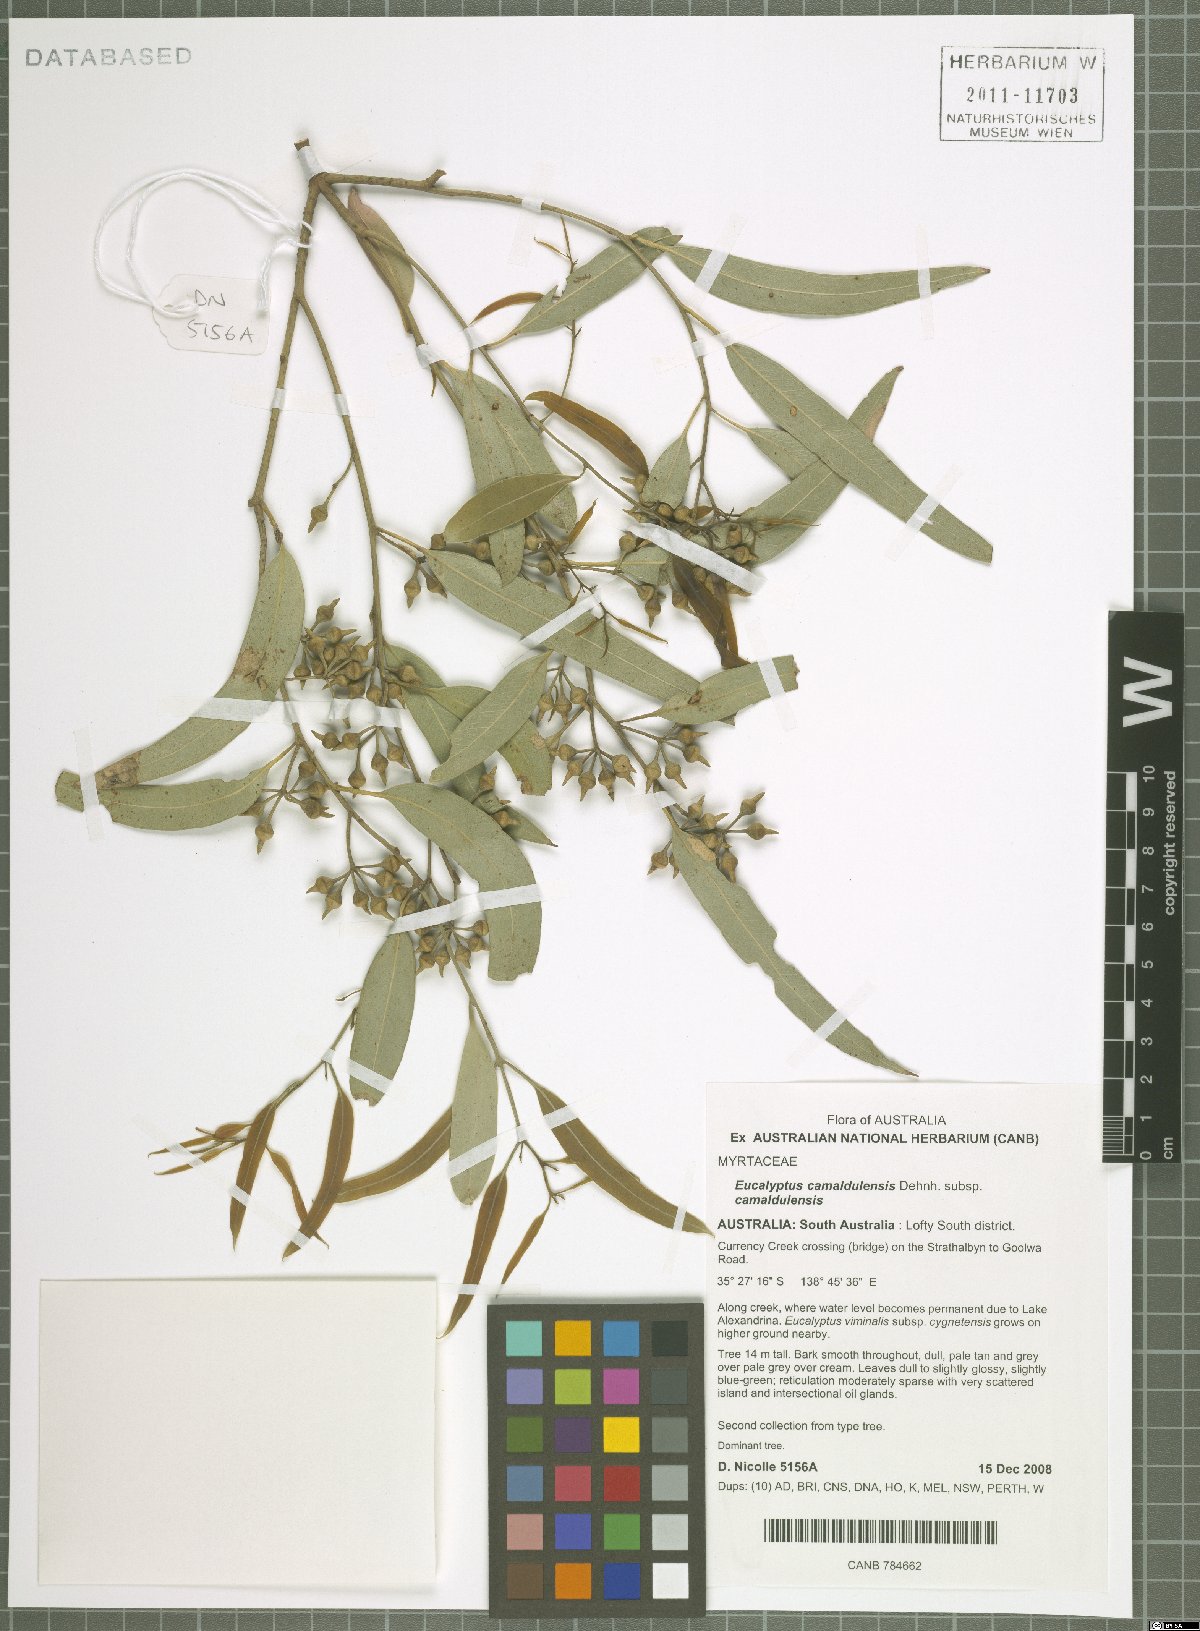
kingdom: Plantae
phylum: Tracheophyta
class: Magnoliopsida
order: Myrtales
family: Myrtaceae
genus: Eucalyptus
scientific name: Eucalyptus camaldulensis
